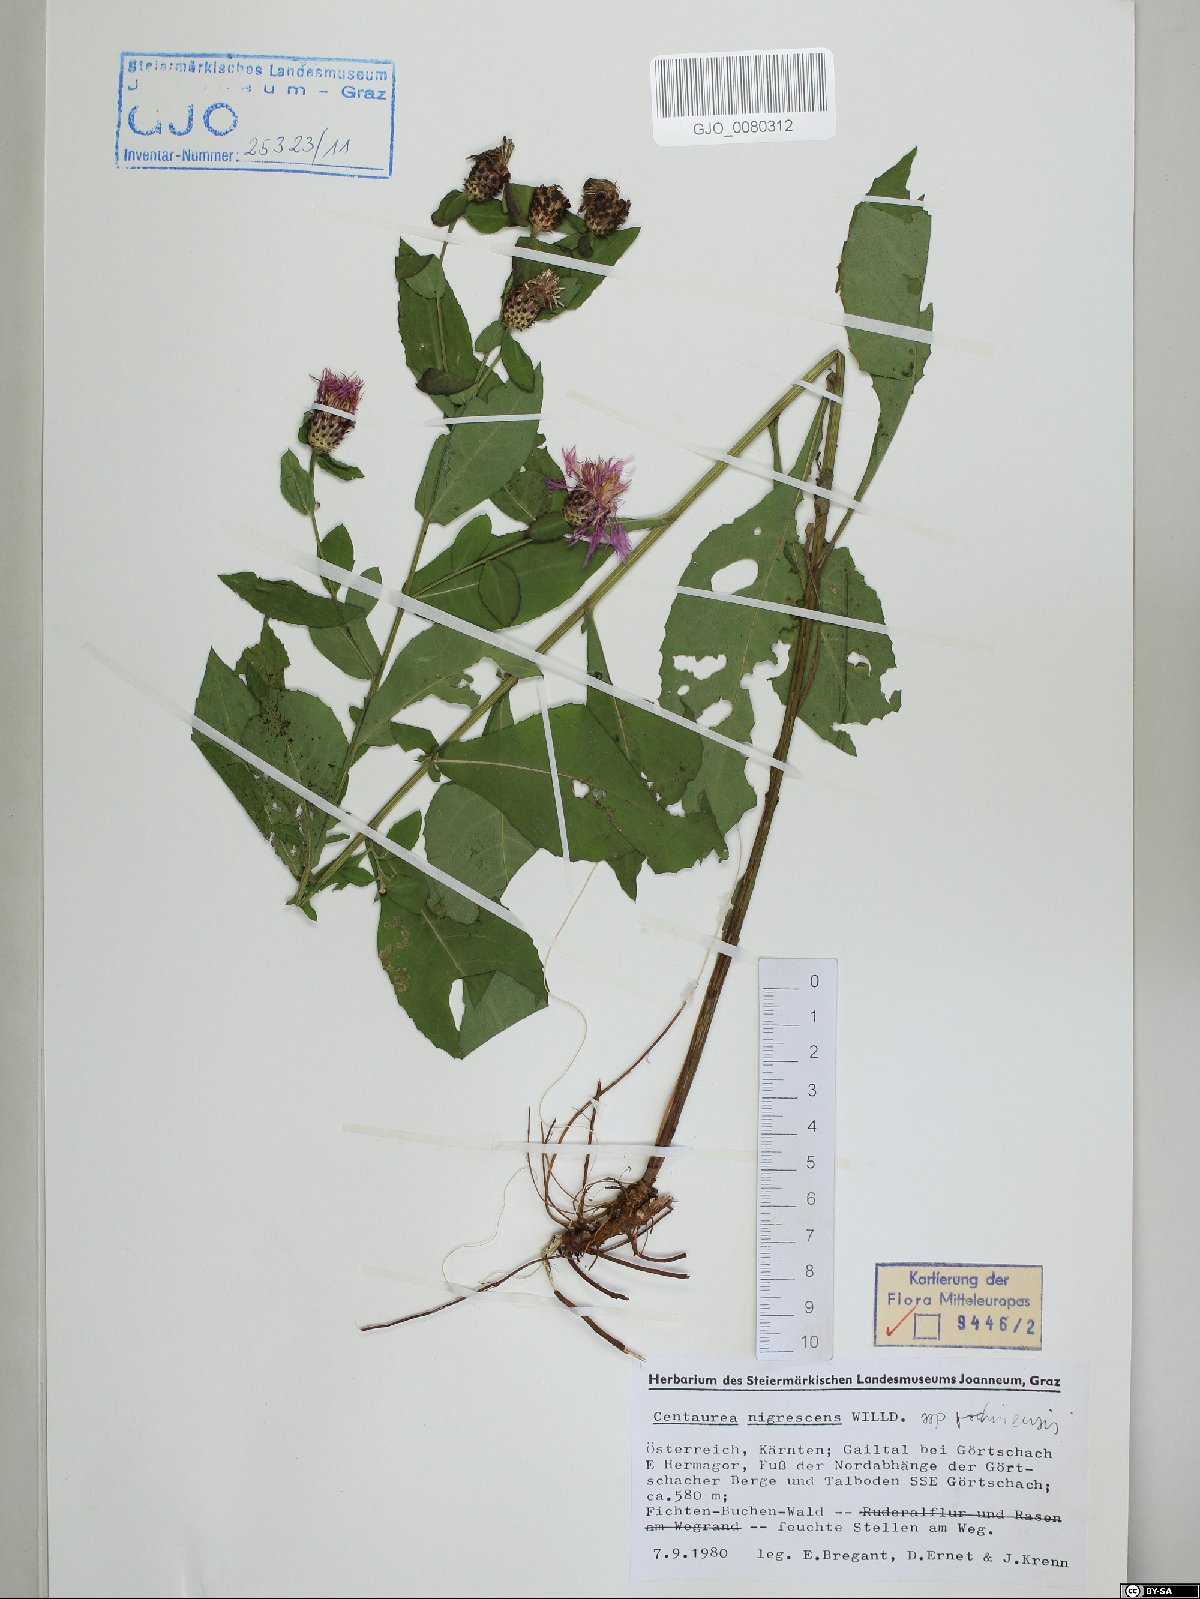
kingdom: Plantae
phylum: Tracheophyta
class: Magnoliopsida
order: Asterales
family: Asteraceae
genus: Centaurea
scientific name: Centaurea carniolica
